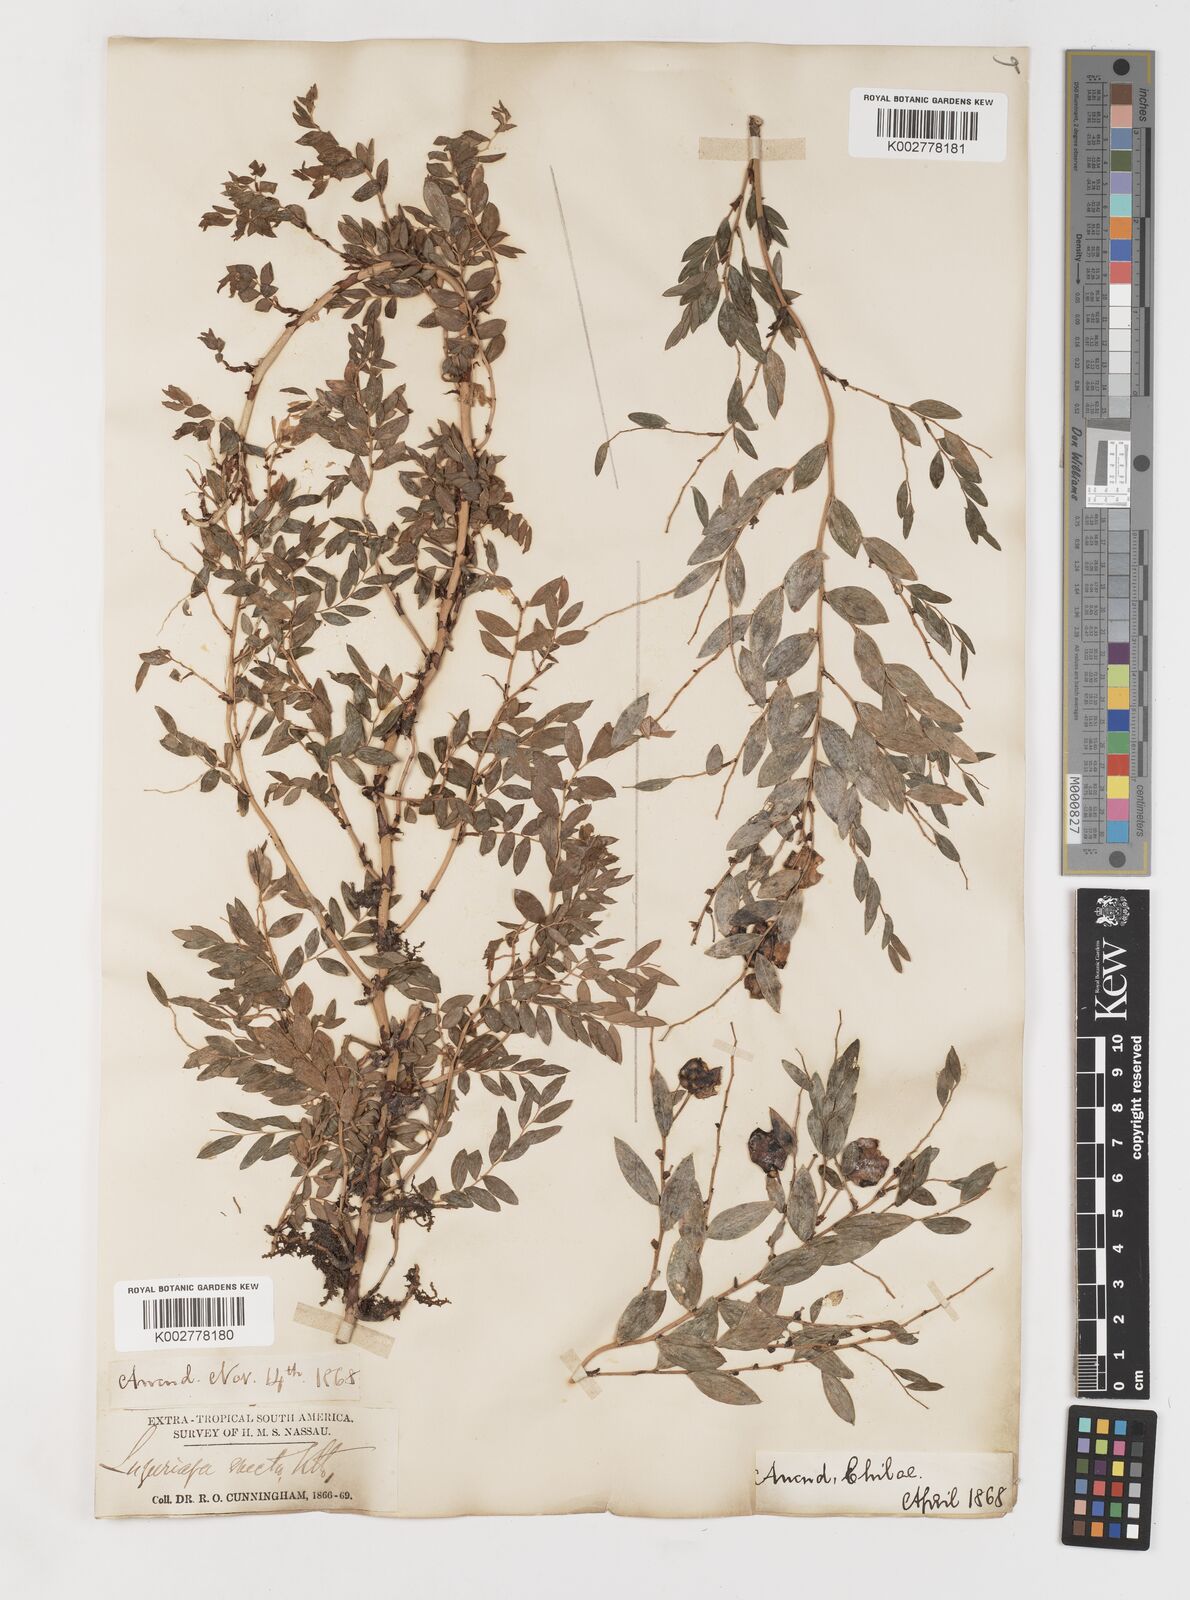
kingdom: Plantae
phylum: Tracheophyta
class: Liliopsida
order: Liliales
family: Alstroemeriaceae
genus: Luzuriaga
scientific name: Luzuriaga polyphylla
